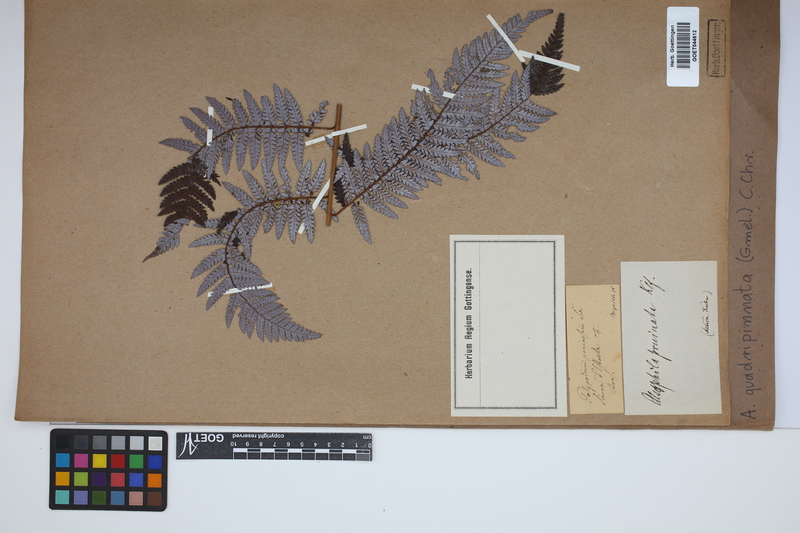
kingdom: Plantae
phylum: Tracheophyta
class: Polypodiopsida
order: Cyatheales
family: Dicksoniaceae
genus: Lophosoria
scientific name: Lophosoria quadripinnata
